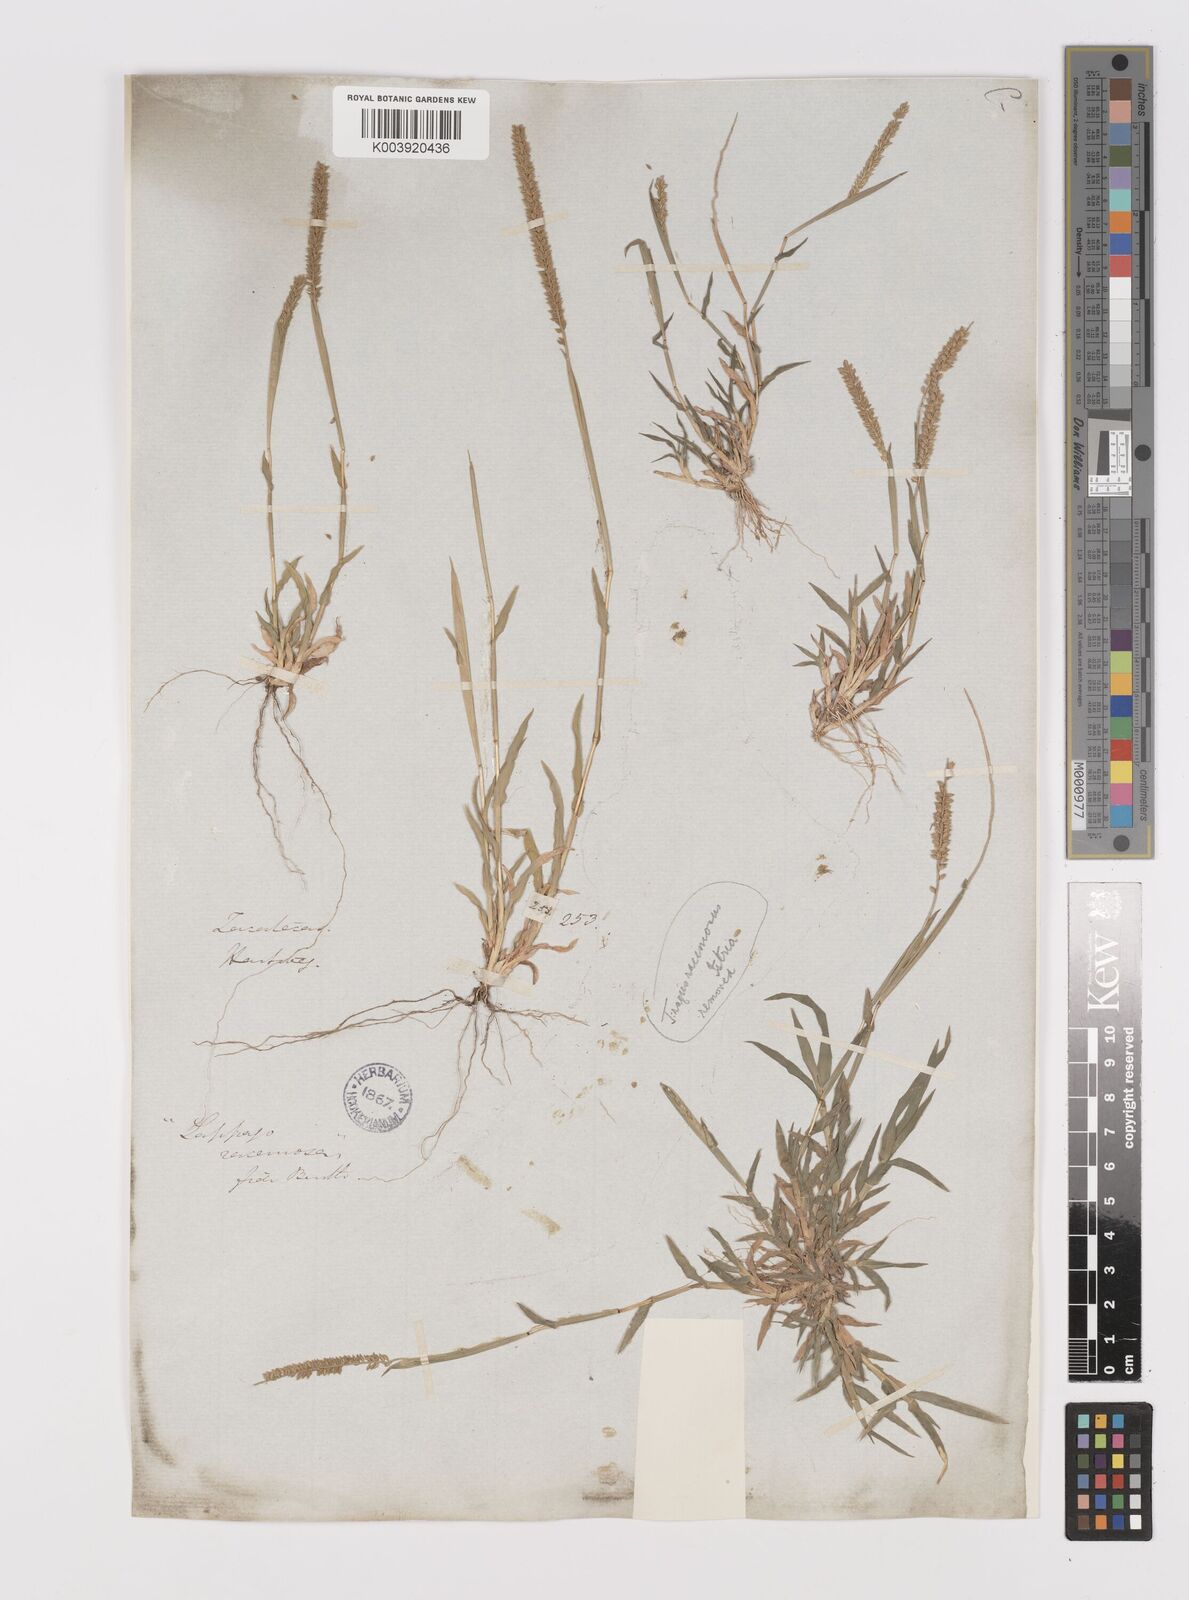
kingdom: Plantae
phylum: Tracheophyta
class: Liliopsida
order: Poales
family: Poaceae
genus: Tragus
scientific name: Tragus berteronianus
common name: African bur-grass
